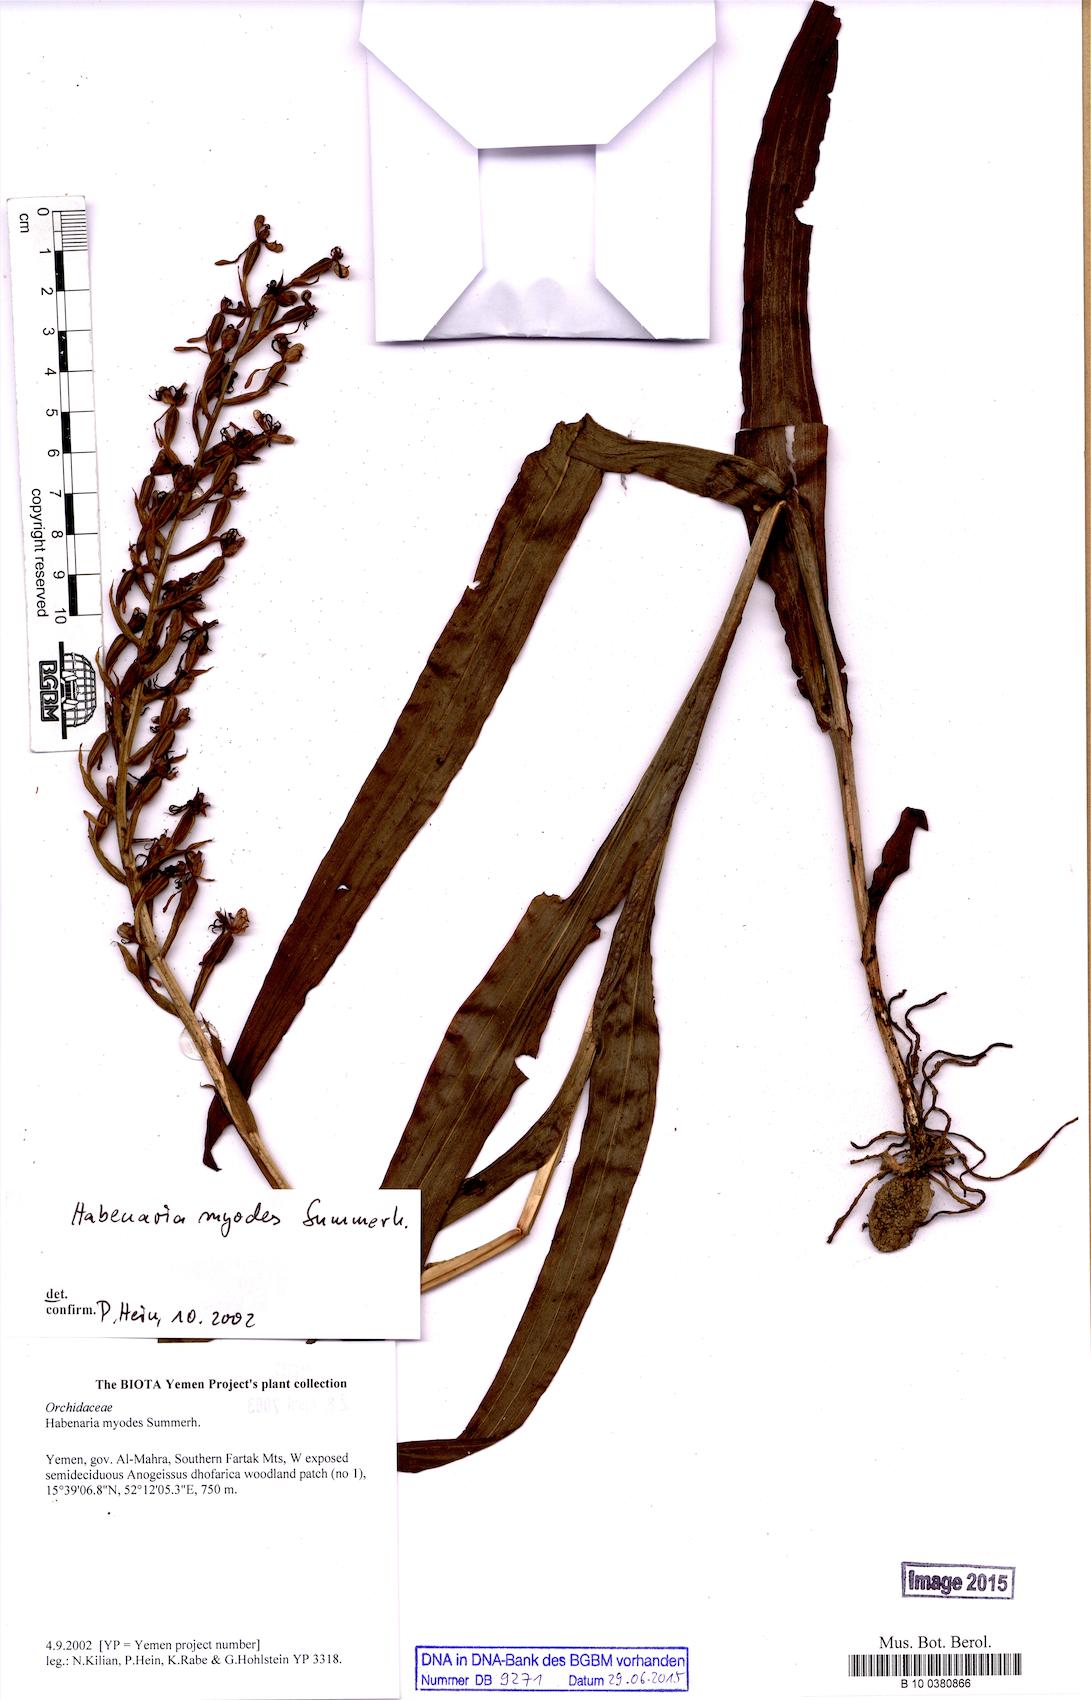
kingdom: Plantae
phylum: Tracheophyta
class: Liliopsida
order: Asparagales
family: Orchidaceae
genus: Habenaria
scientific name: Habenaria myodes
